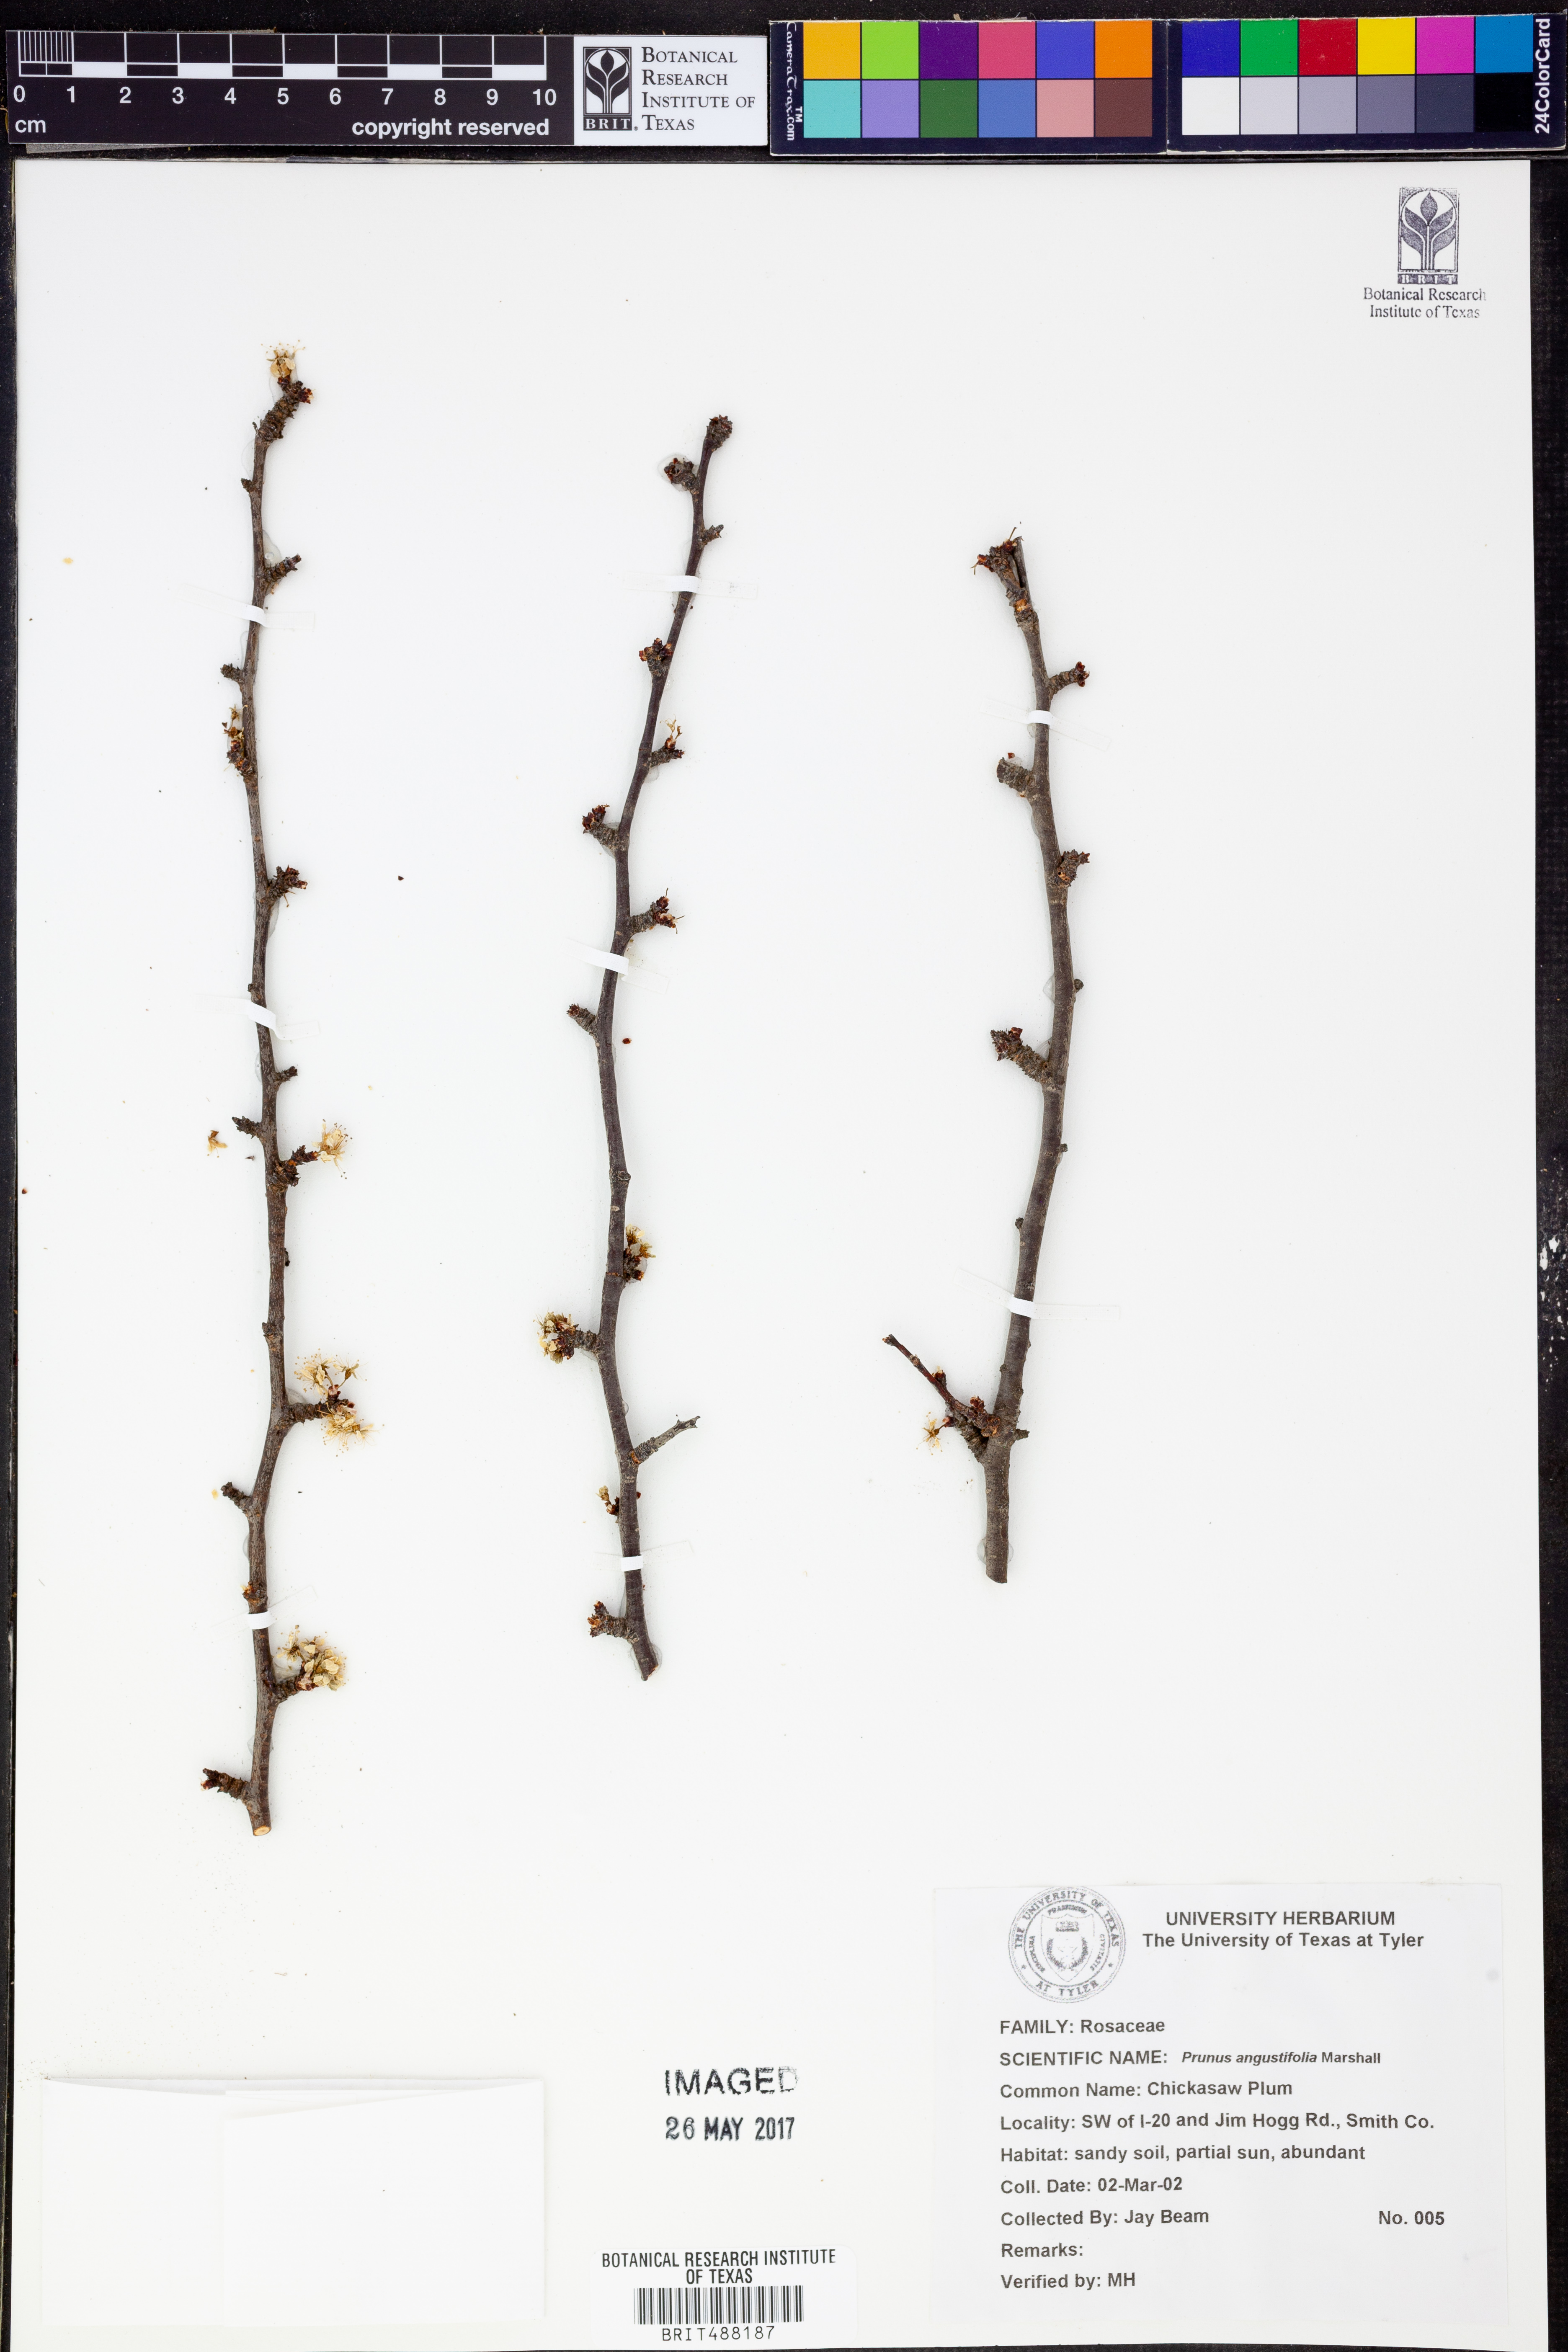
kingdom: Plantae
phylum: Tracheophyta
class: Magnoliopsida
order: Rosales
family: Rosaceae
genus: Prunus
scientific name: Prunus angustifolia
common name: Cherokee plum
